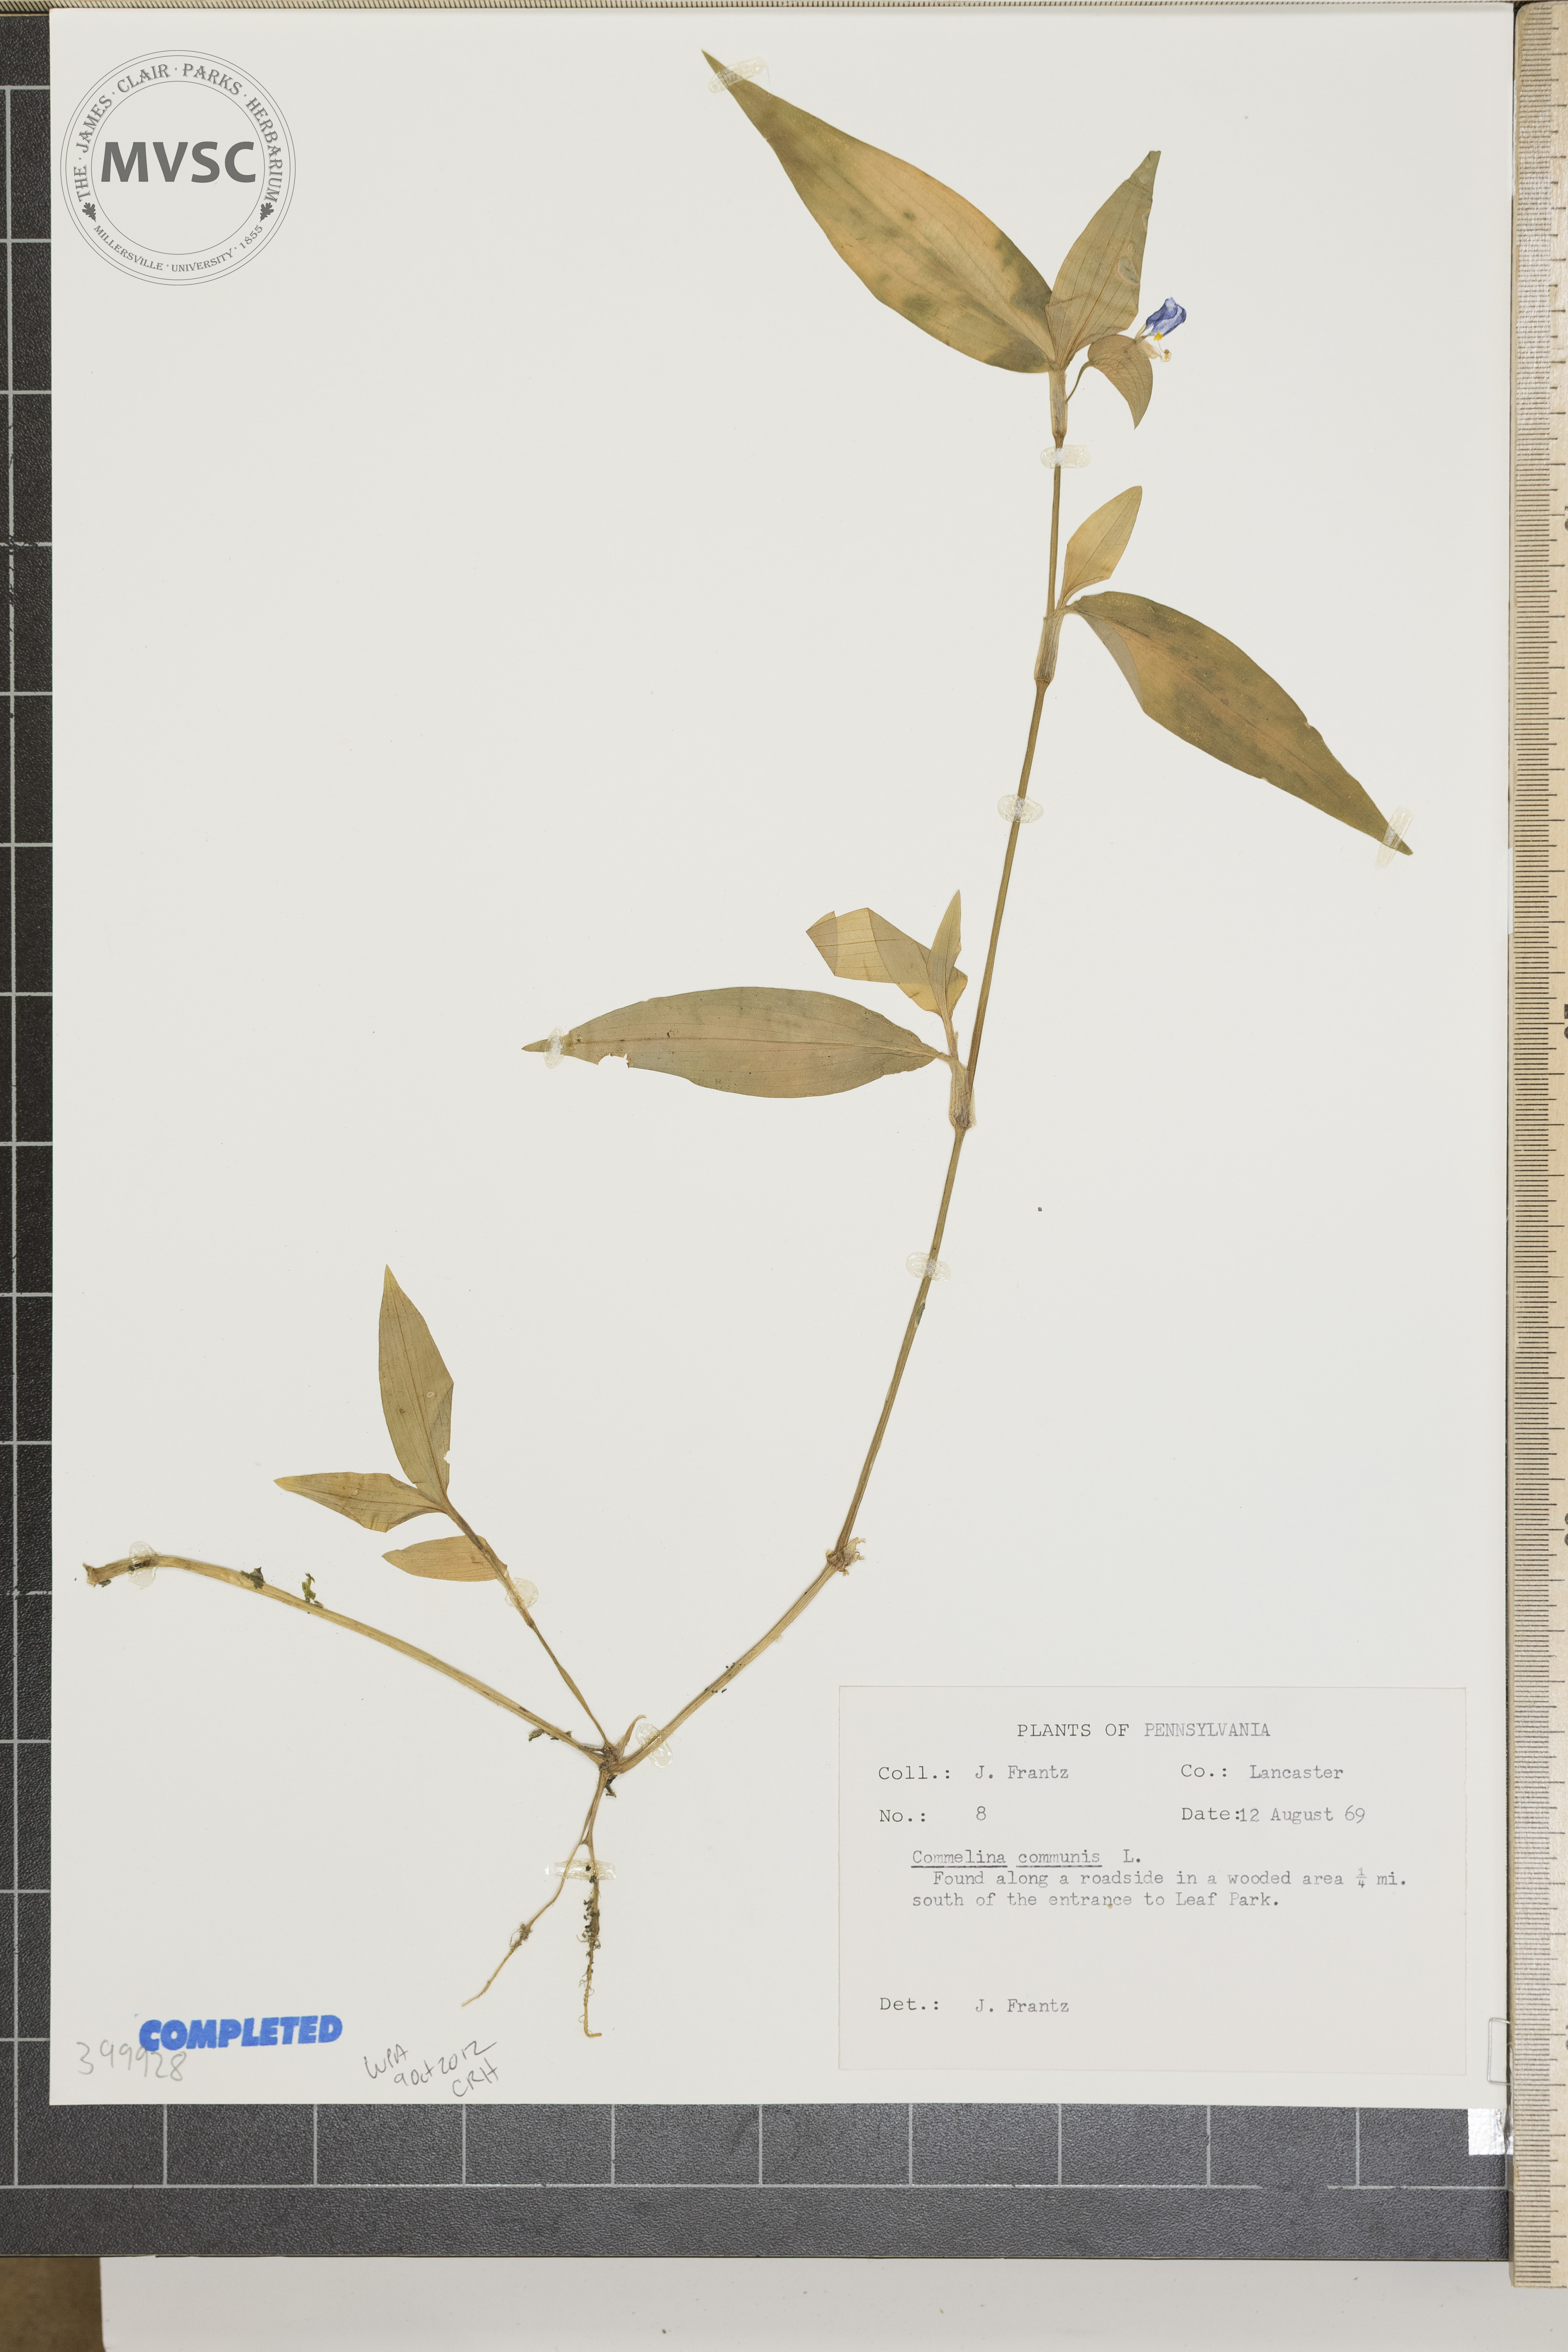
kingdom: Plantae
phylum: Tracheophyta
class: Liliopsida
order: Commelinales
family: Commelinaceae
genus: Commelina
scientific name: Commelina communis
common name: Asiatic dayflower
